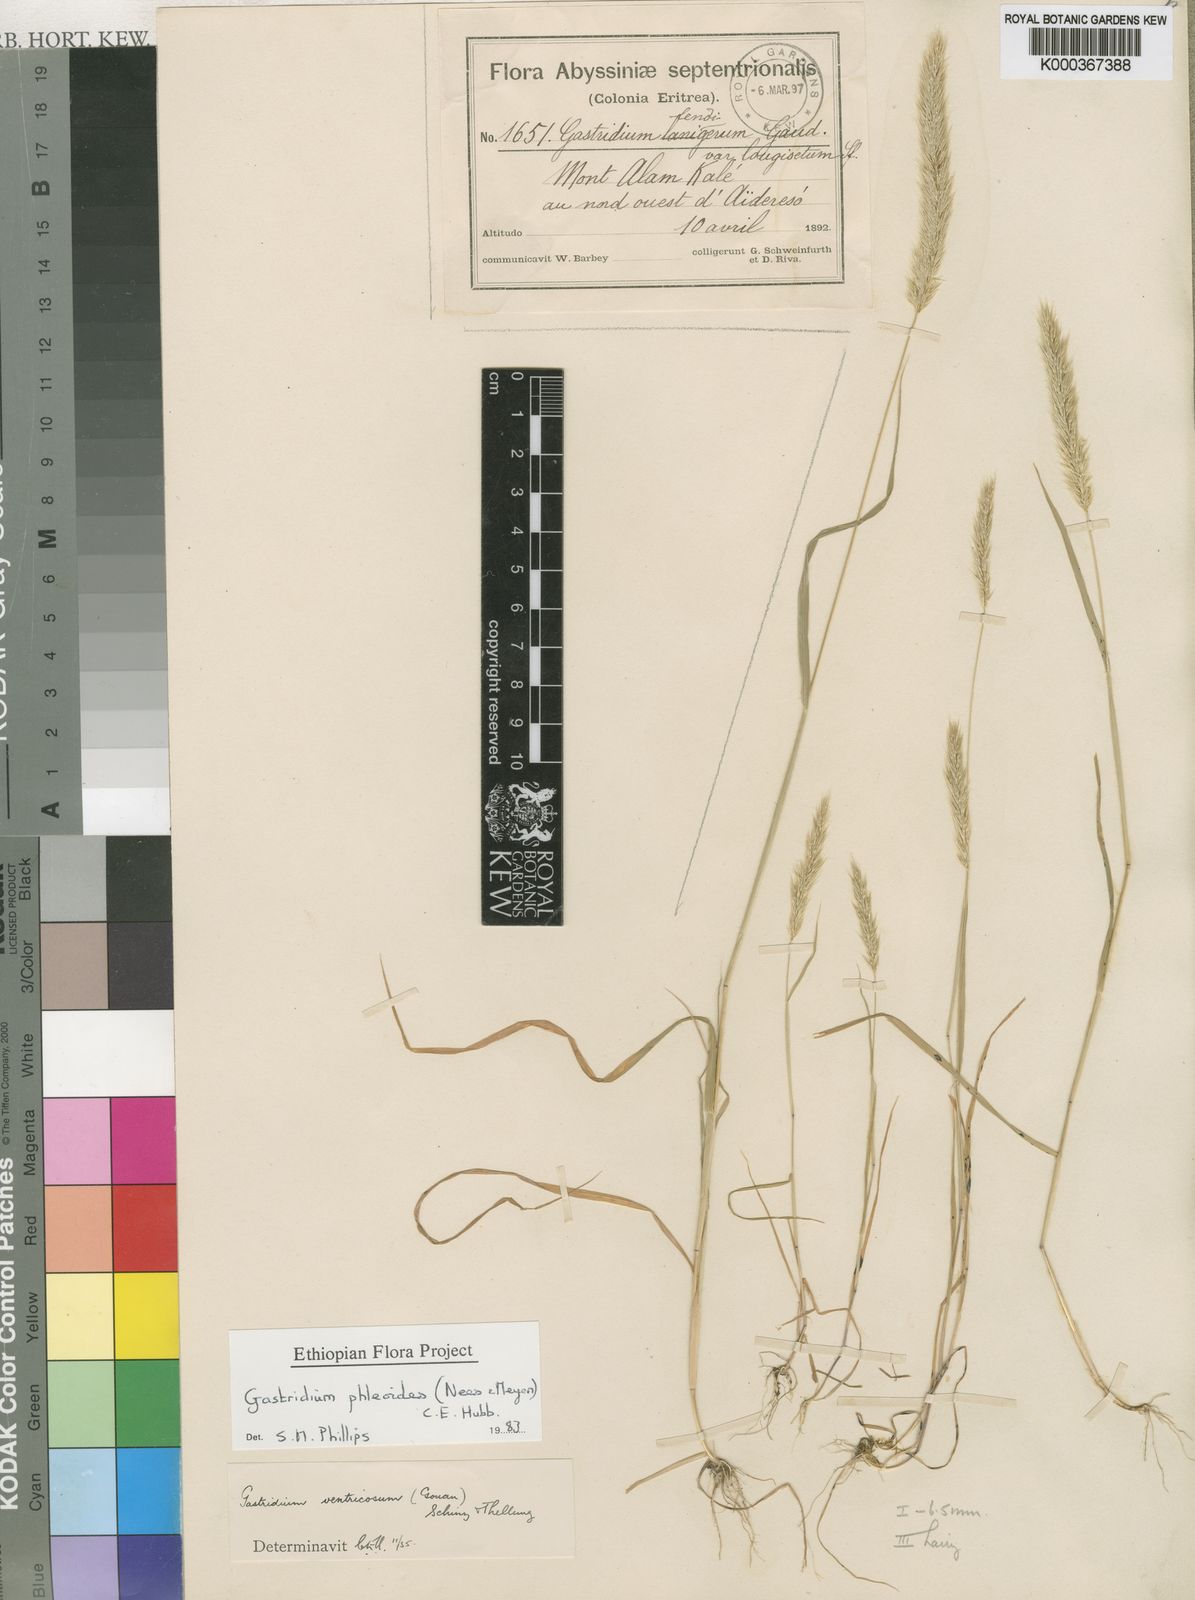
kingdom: Plantae
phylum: Tracheophyta
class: Liliopsida
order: Poales
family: Poaceae
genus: Gastridium
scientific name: Gastridium phleoides
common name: Nit grass
